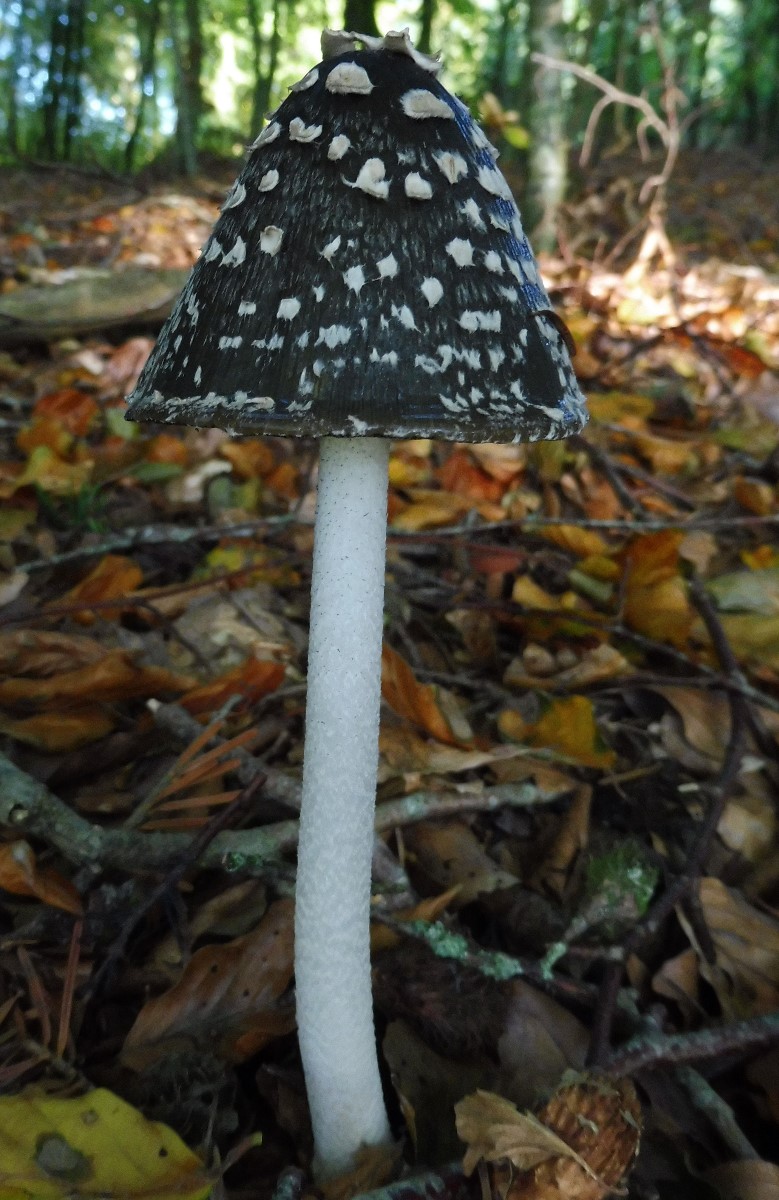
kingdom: Fungi
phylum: Basidiomycota
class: Agaricomycetes
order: Agaricales
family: Psathyrellaceae
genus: Coprinopsis
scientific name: Coprinopsis picacea
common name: skade-blækhat
